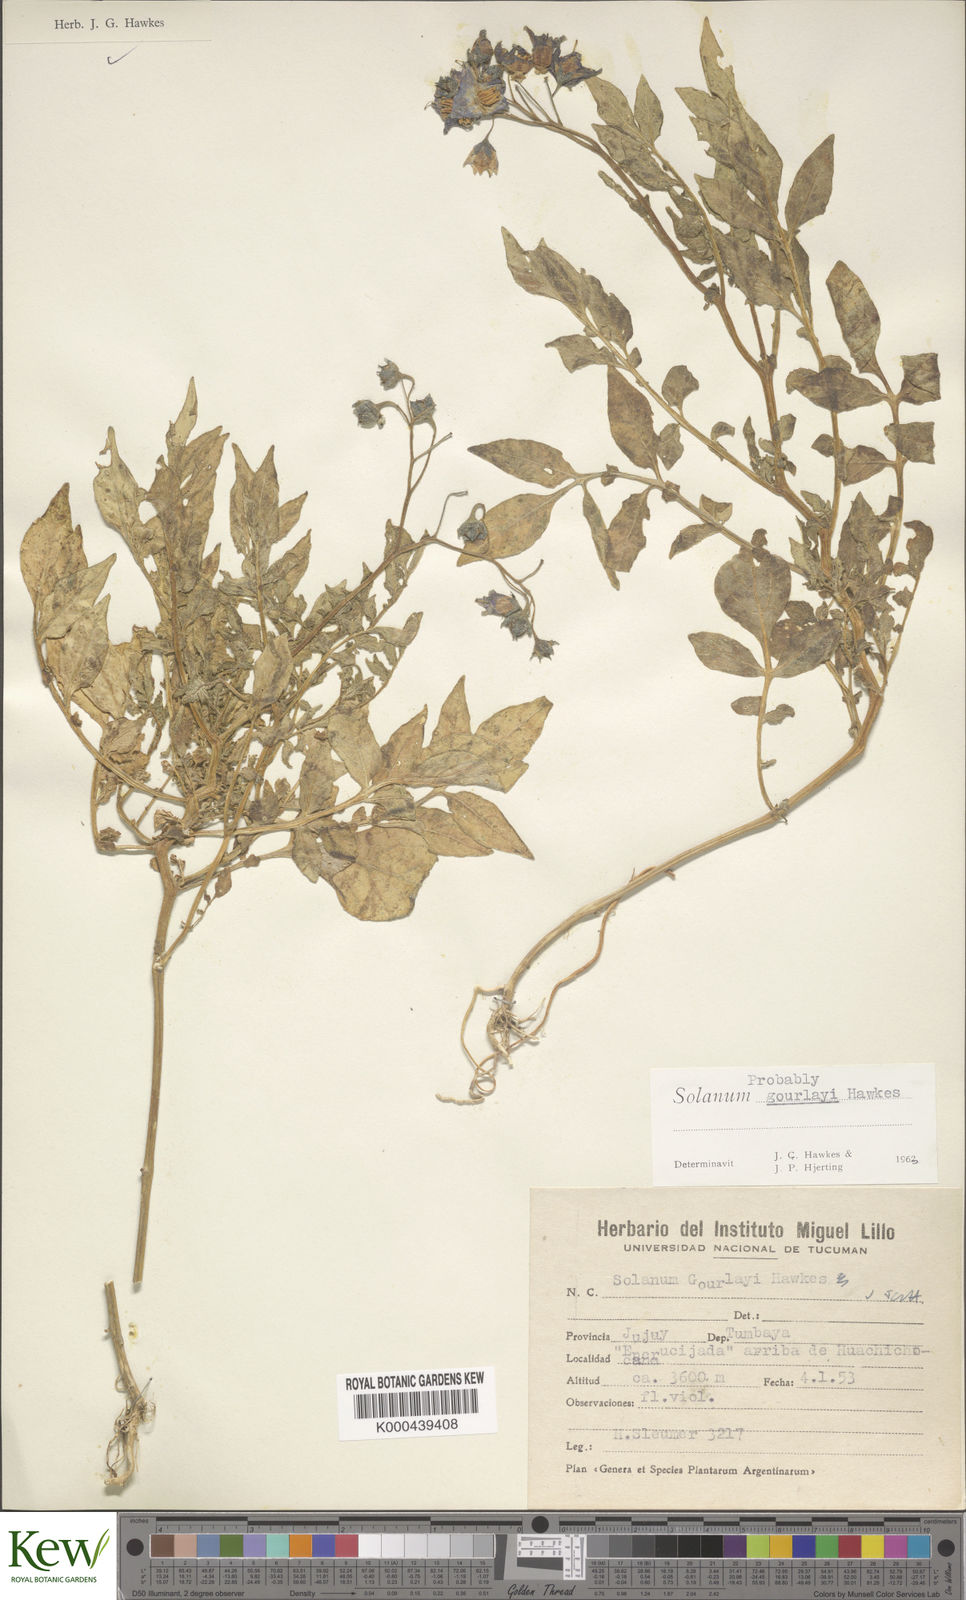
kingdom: Plantae
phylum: Tracheophyta
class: Magnoliopsida
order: Solanales
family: Solanaceae
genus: Solanum
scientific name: Solanum brevicaule
